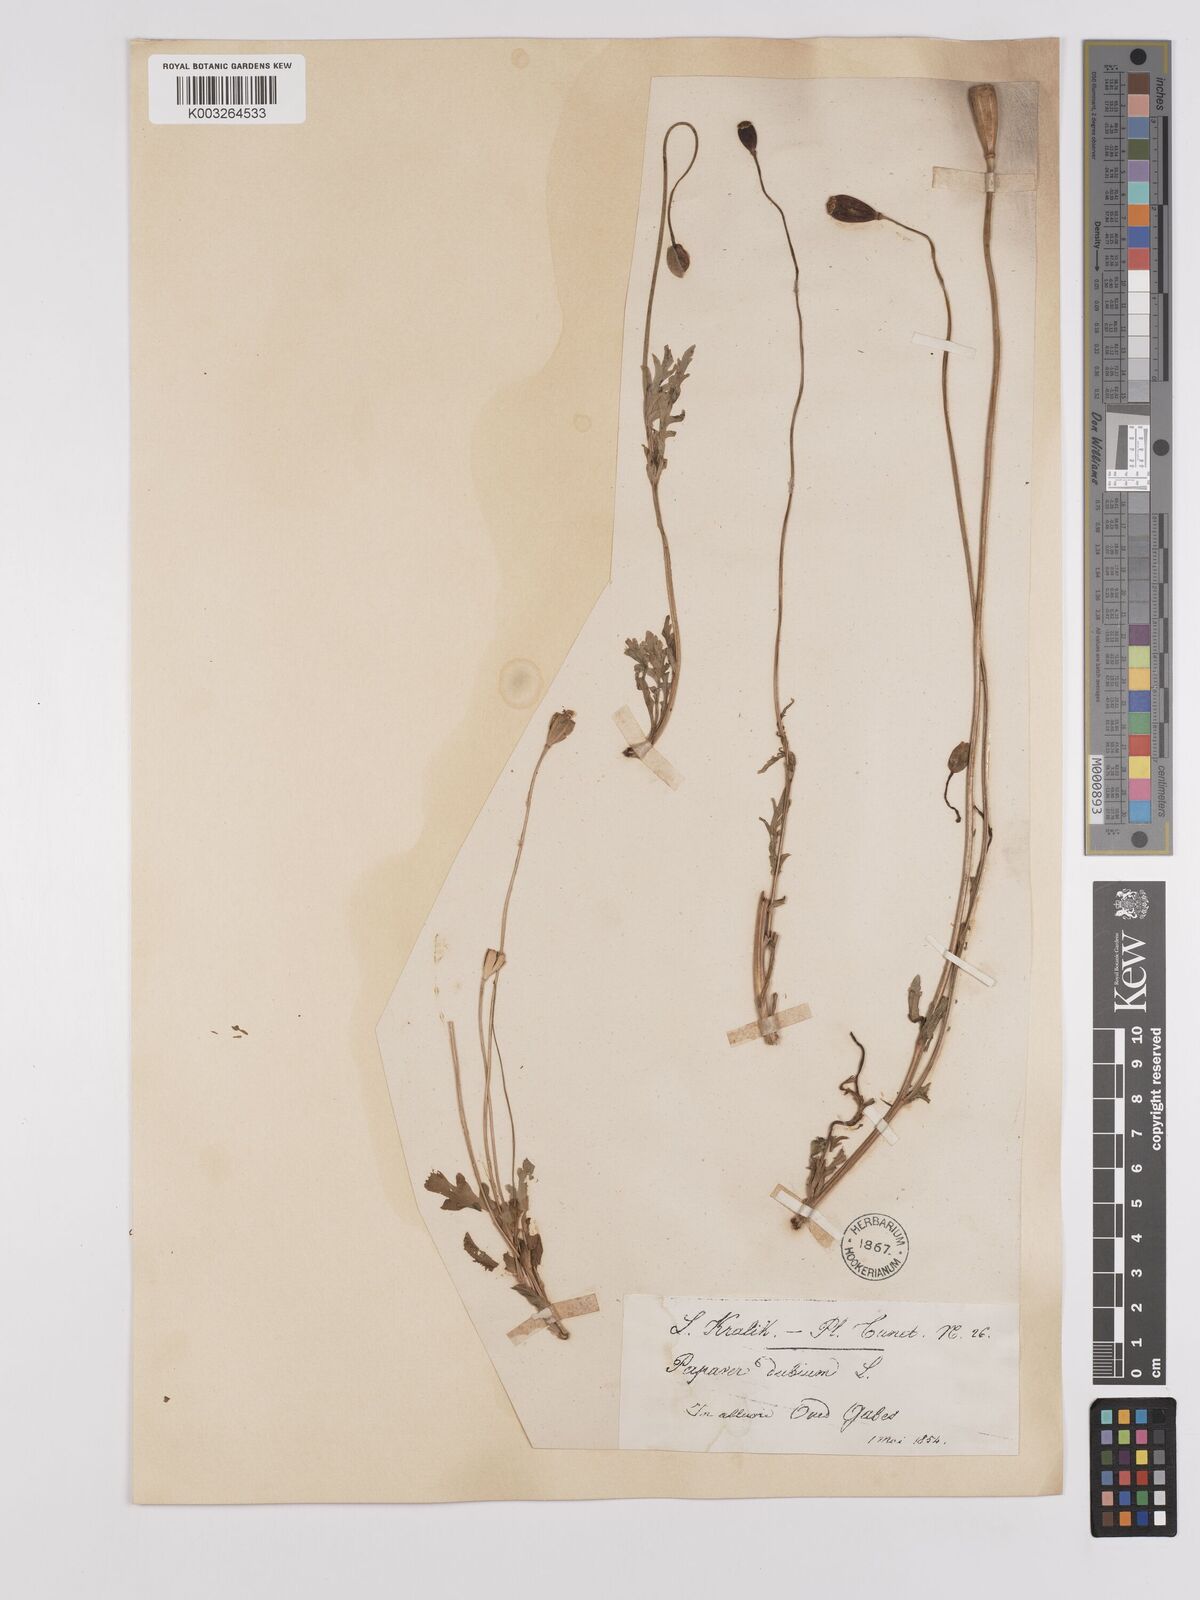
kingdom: Plantae
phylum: Tracheophyta
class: Magnoliopsida
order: Ranunculales
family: Papaveraceae
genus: Papaver
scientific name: Papaver dubium
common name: Long-headed poppy
